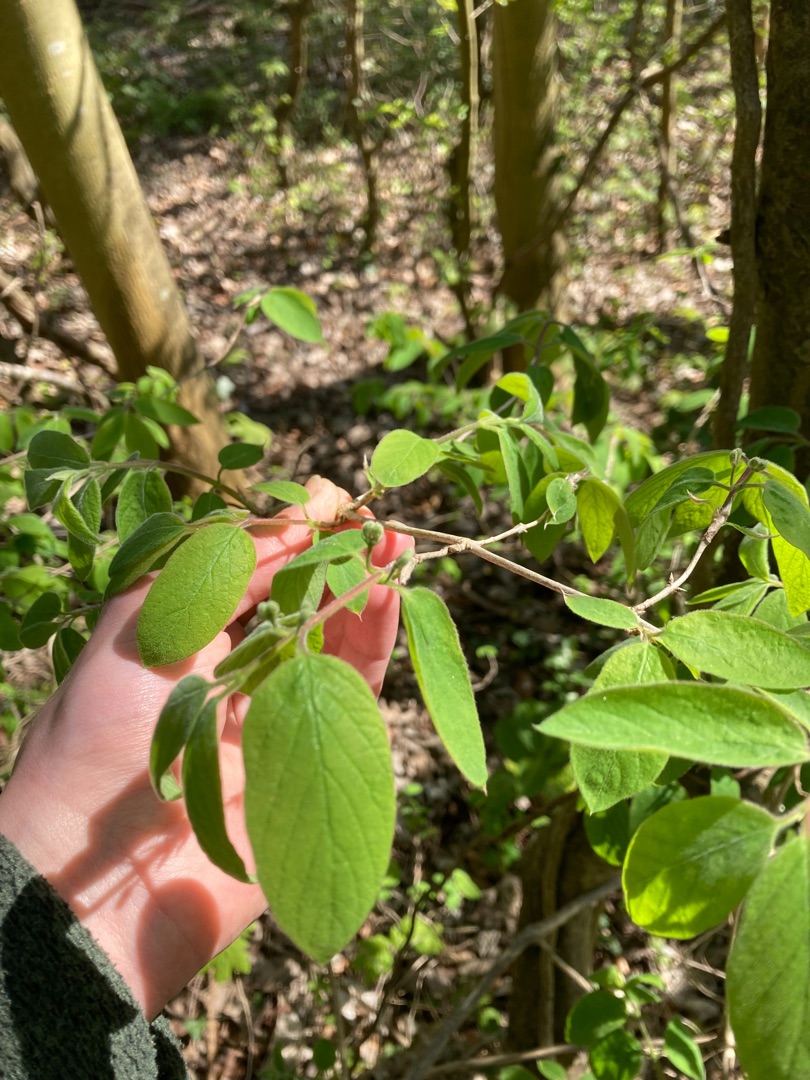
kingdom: Plantae
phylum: Tracheophyta
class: Magnoliopsida
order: Dipsacales
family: Caprifoliaceae
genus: Lonicera
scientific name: Lonicera xylosteum
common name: Dunet gedeblad
